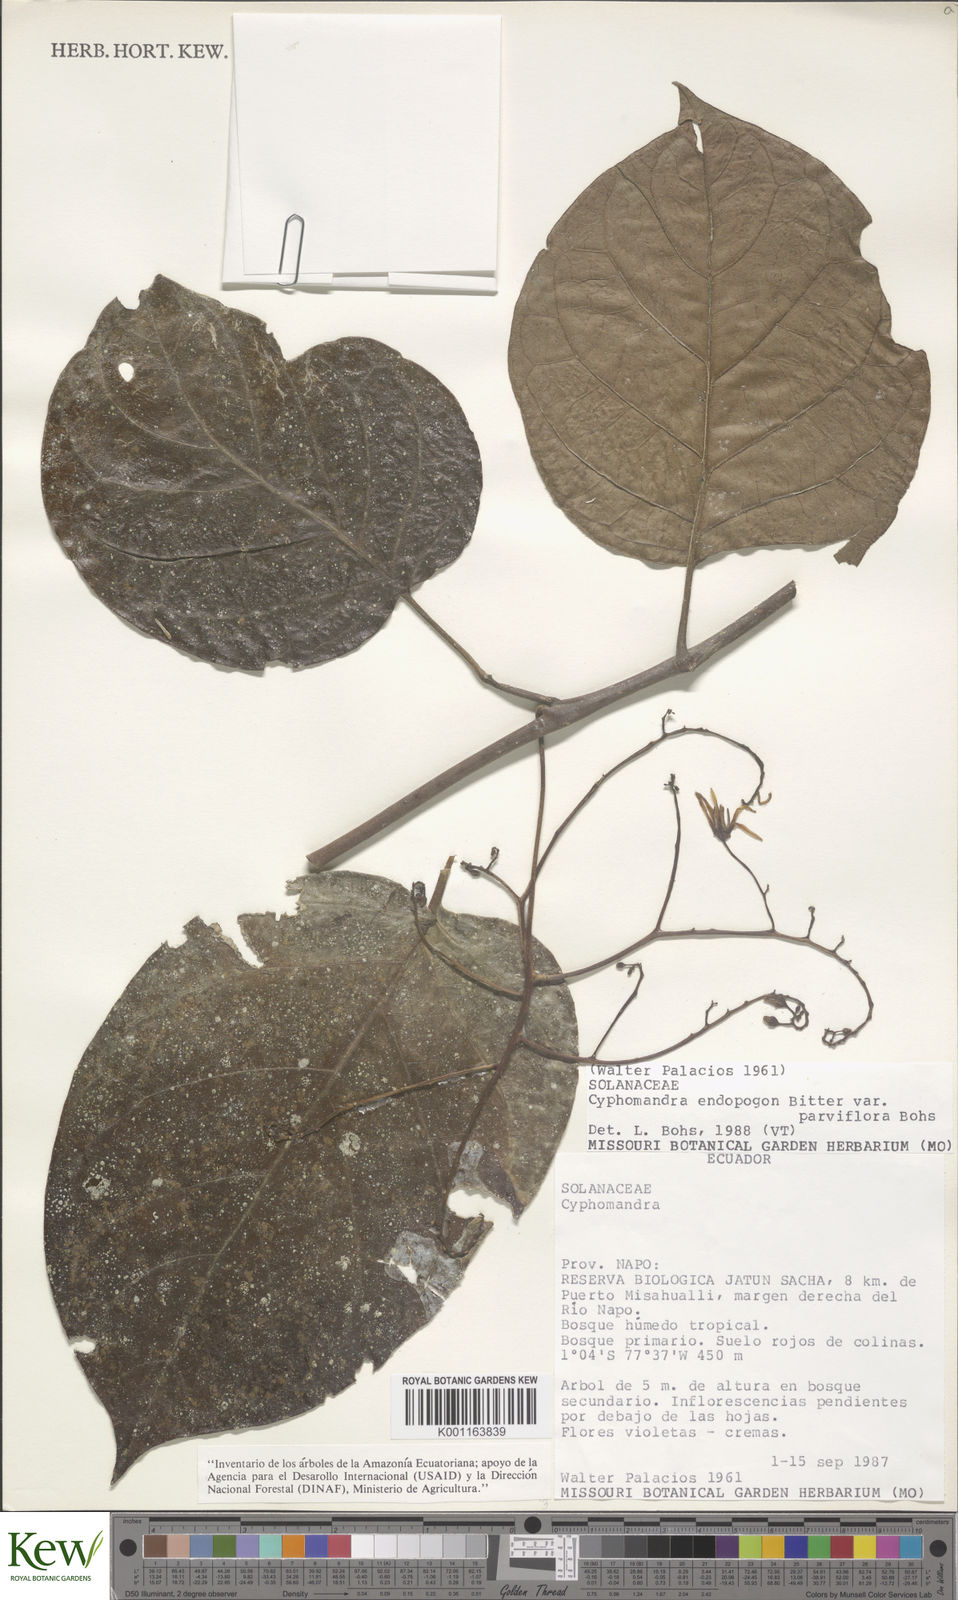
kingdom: Plantae
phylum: Tracheophyta
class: Magnoliopsida
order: Solanales
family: Solanaceae
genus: Solanum
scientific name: Solanum endopogon
